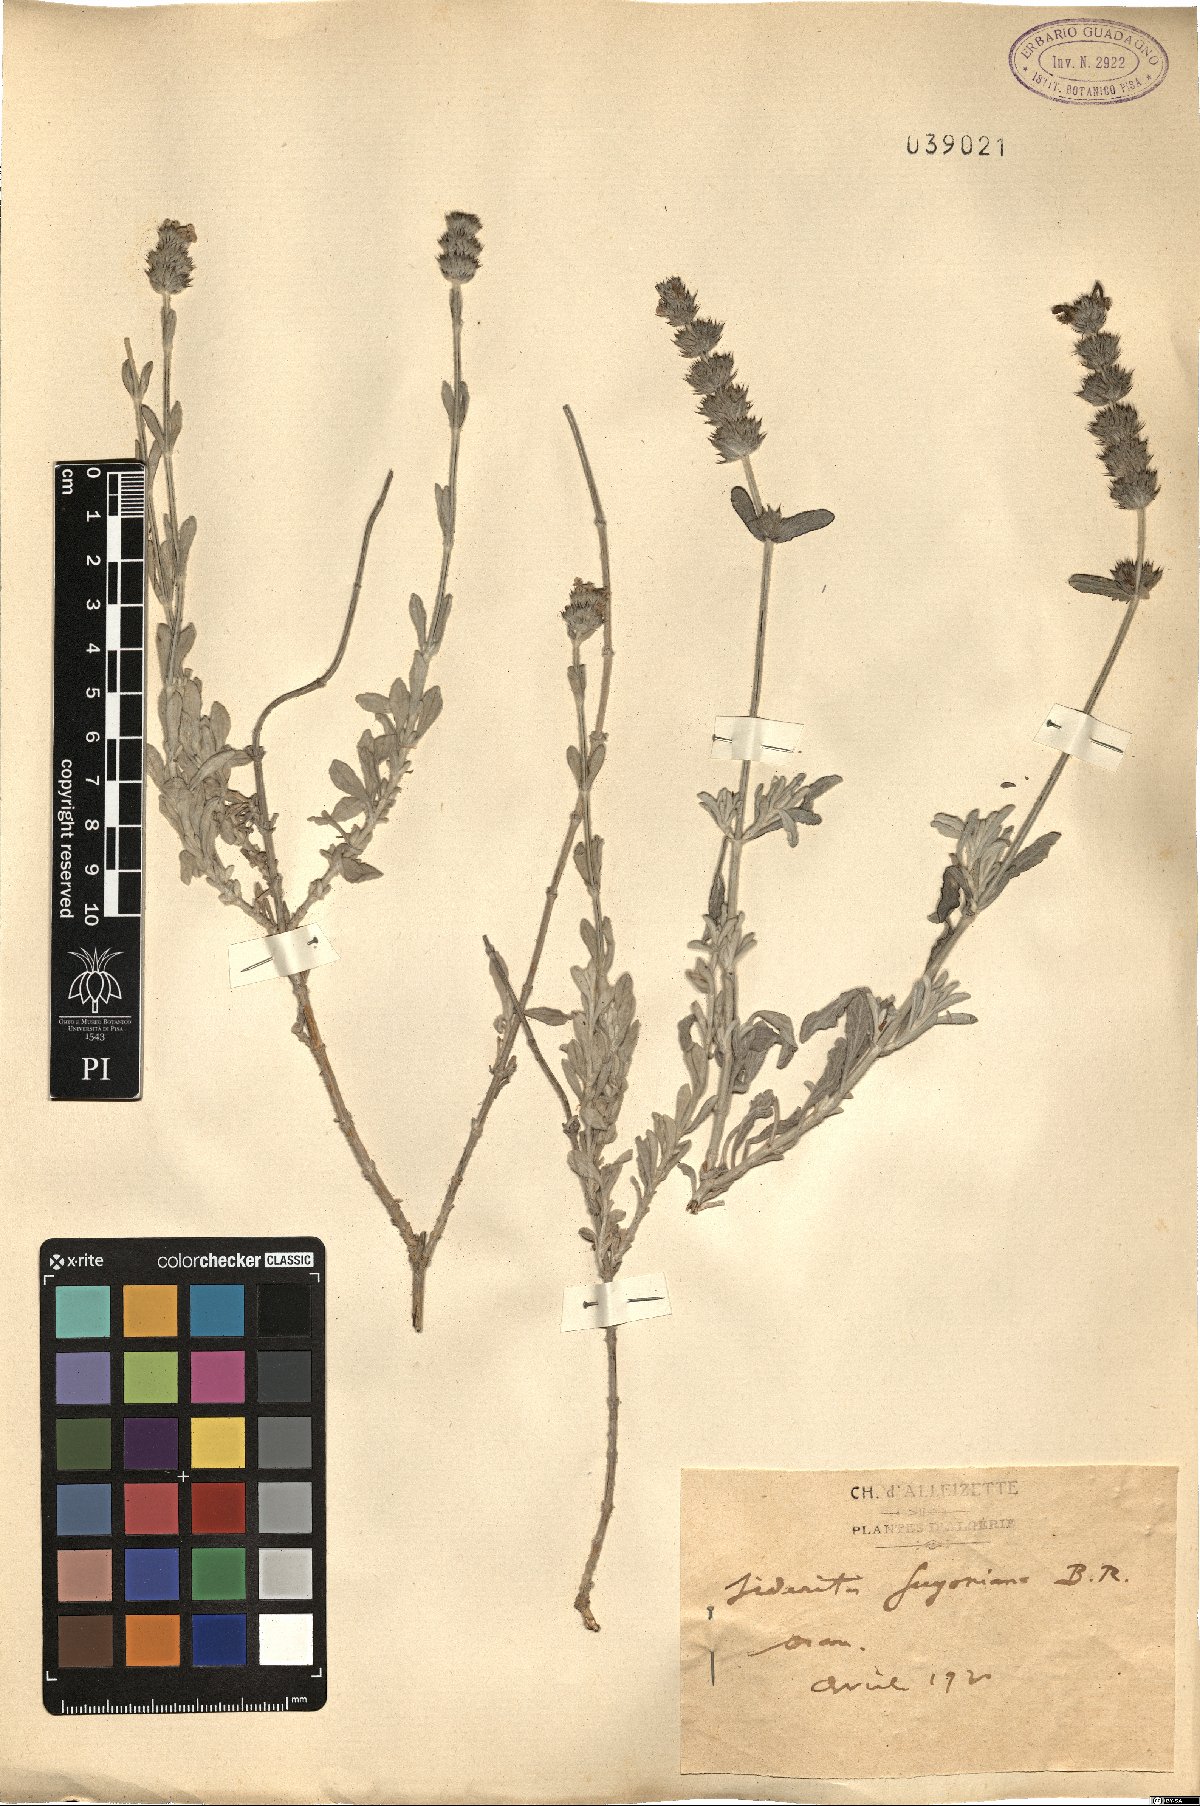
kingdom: Plantae
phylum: Tracheophyta
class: Magnoliopsida
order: Lamiales
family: Lamiaceae
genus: Sideritis
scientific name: Sideritis guyoniana
